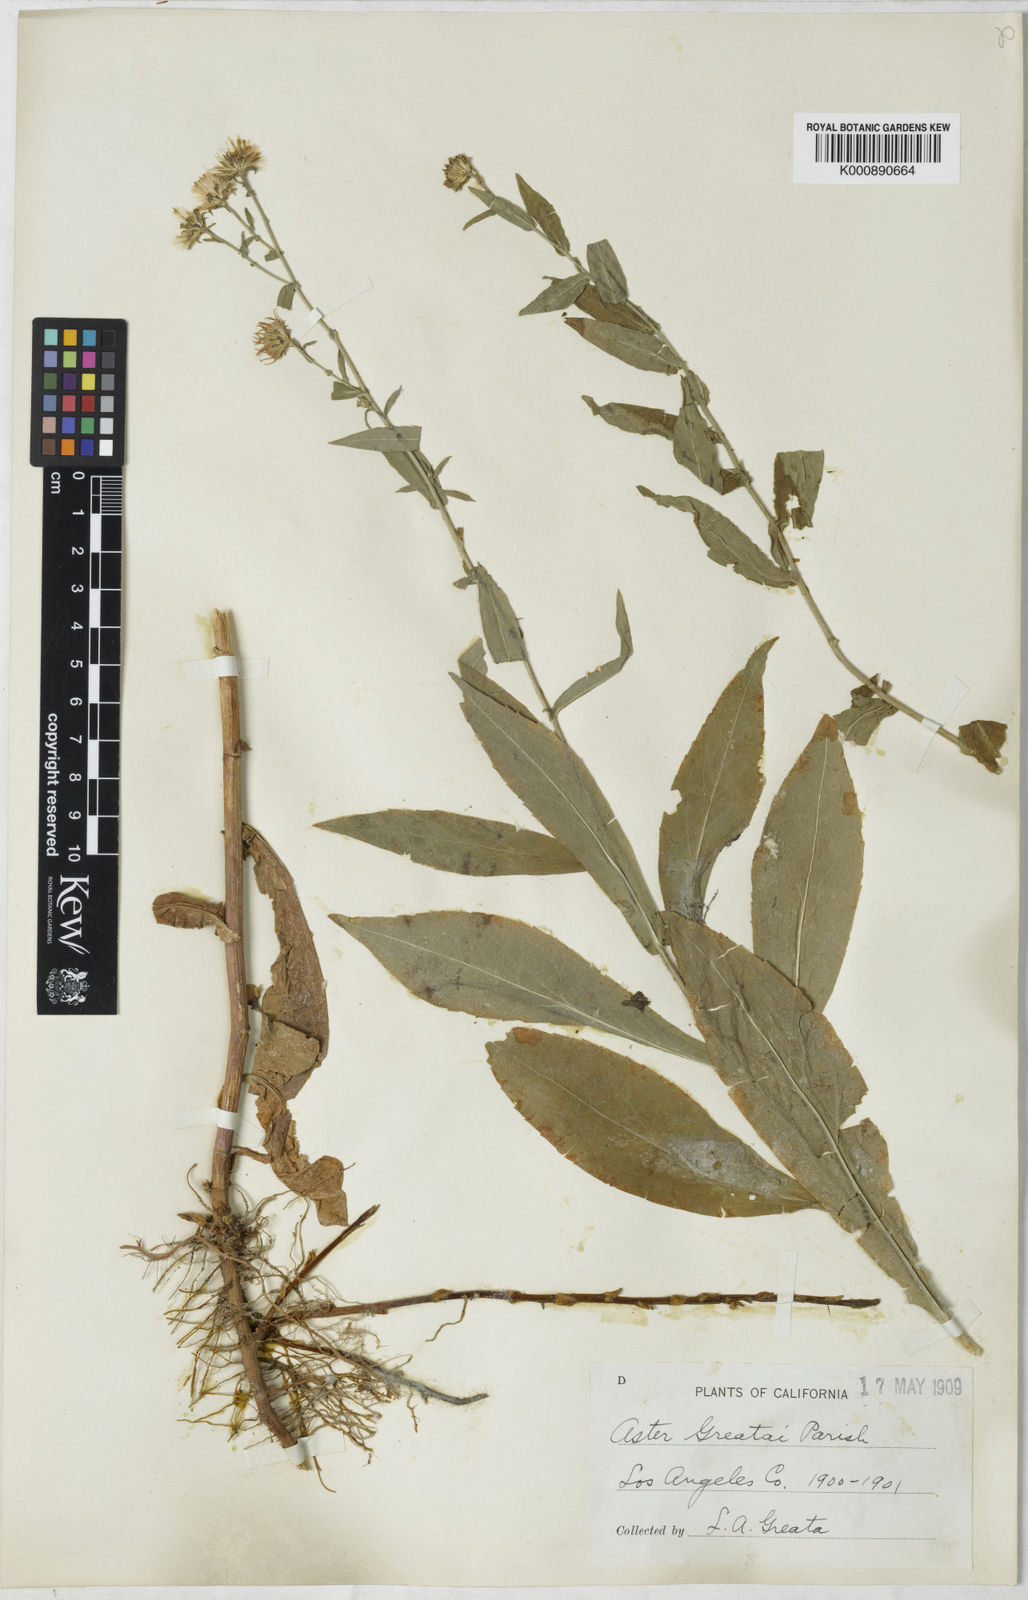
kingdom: Plantae
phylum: Tracheophyta
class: Magnoliopsida
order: Asterales
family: Asteraceae
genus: Symphyotrichum
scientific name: Symphyotrichum greatae
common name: Greata's aster
